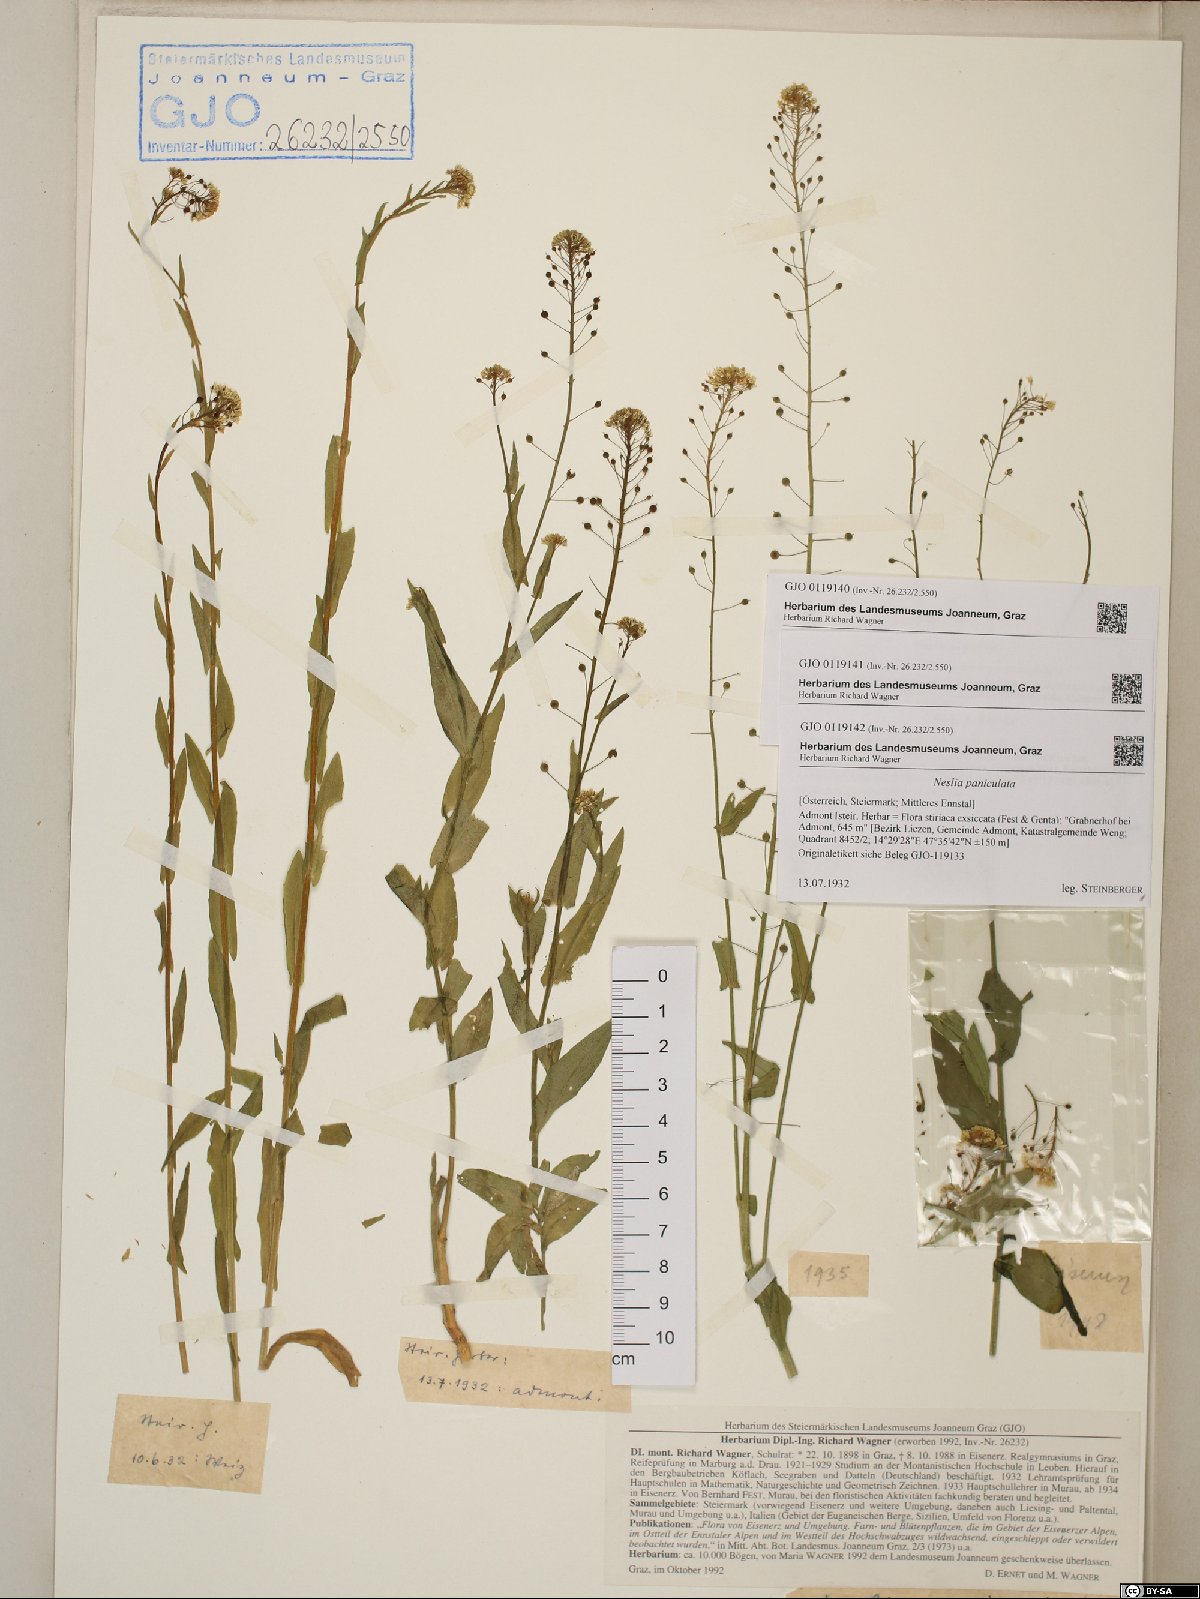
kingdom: Plantae
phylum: Tracheophyta
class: Magnoliopsida
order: Brassicales
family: Brassicaceae
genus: Neslia
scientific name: Neslia paniculata
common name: Ball mustard
